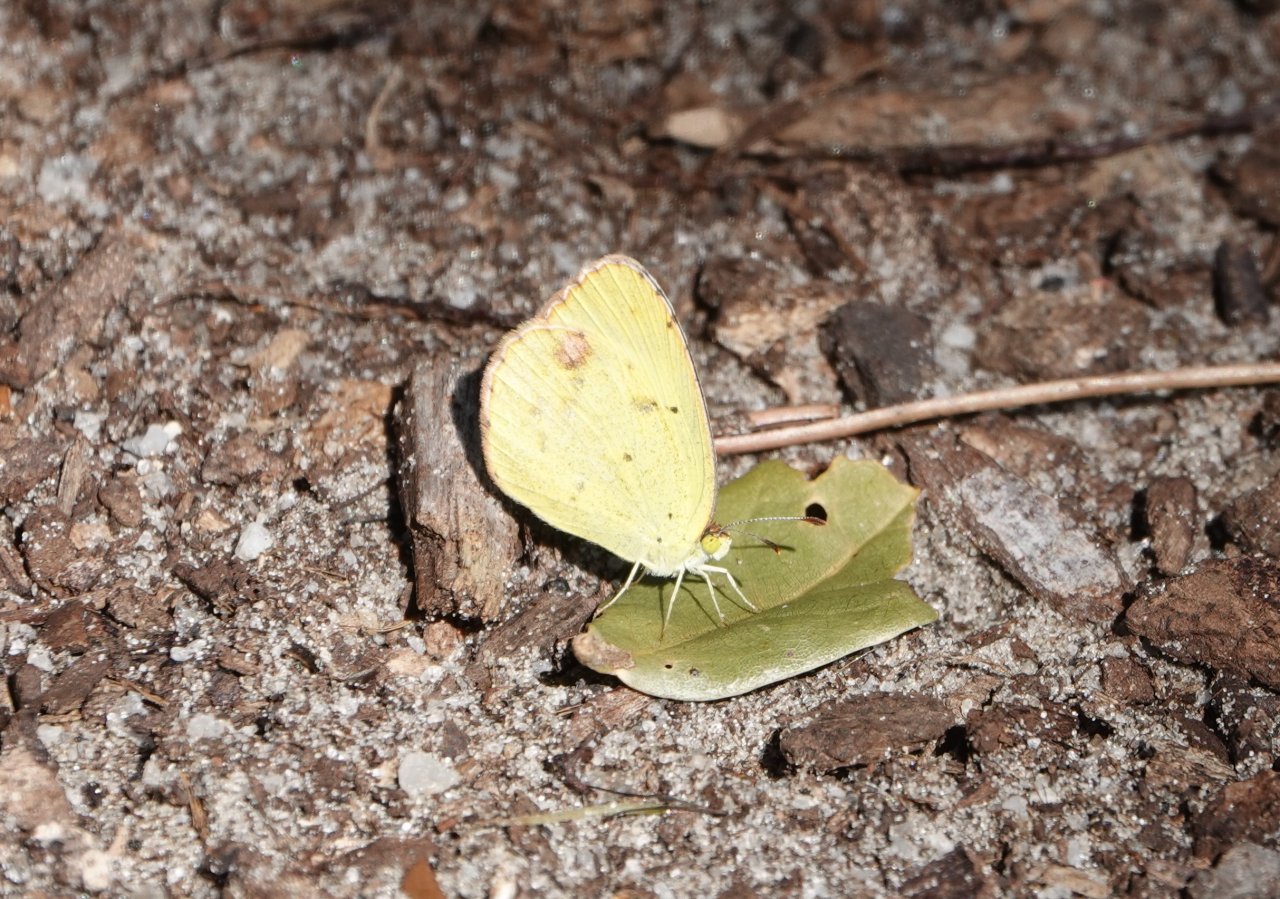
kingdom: Animalia
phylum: Arthropoda
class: Insecta
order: Lepidoptera
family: Pieridae
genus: Pyrisitia
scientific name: Pyrisitia lisa
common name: Little Yellow
